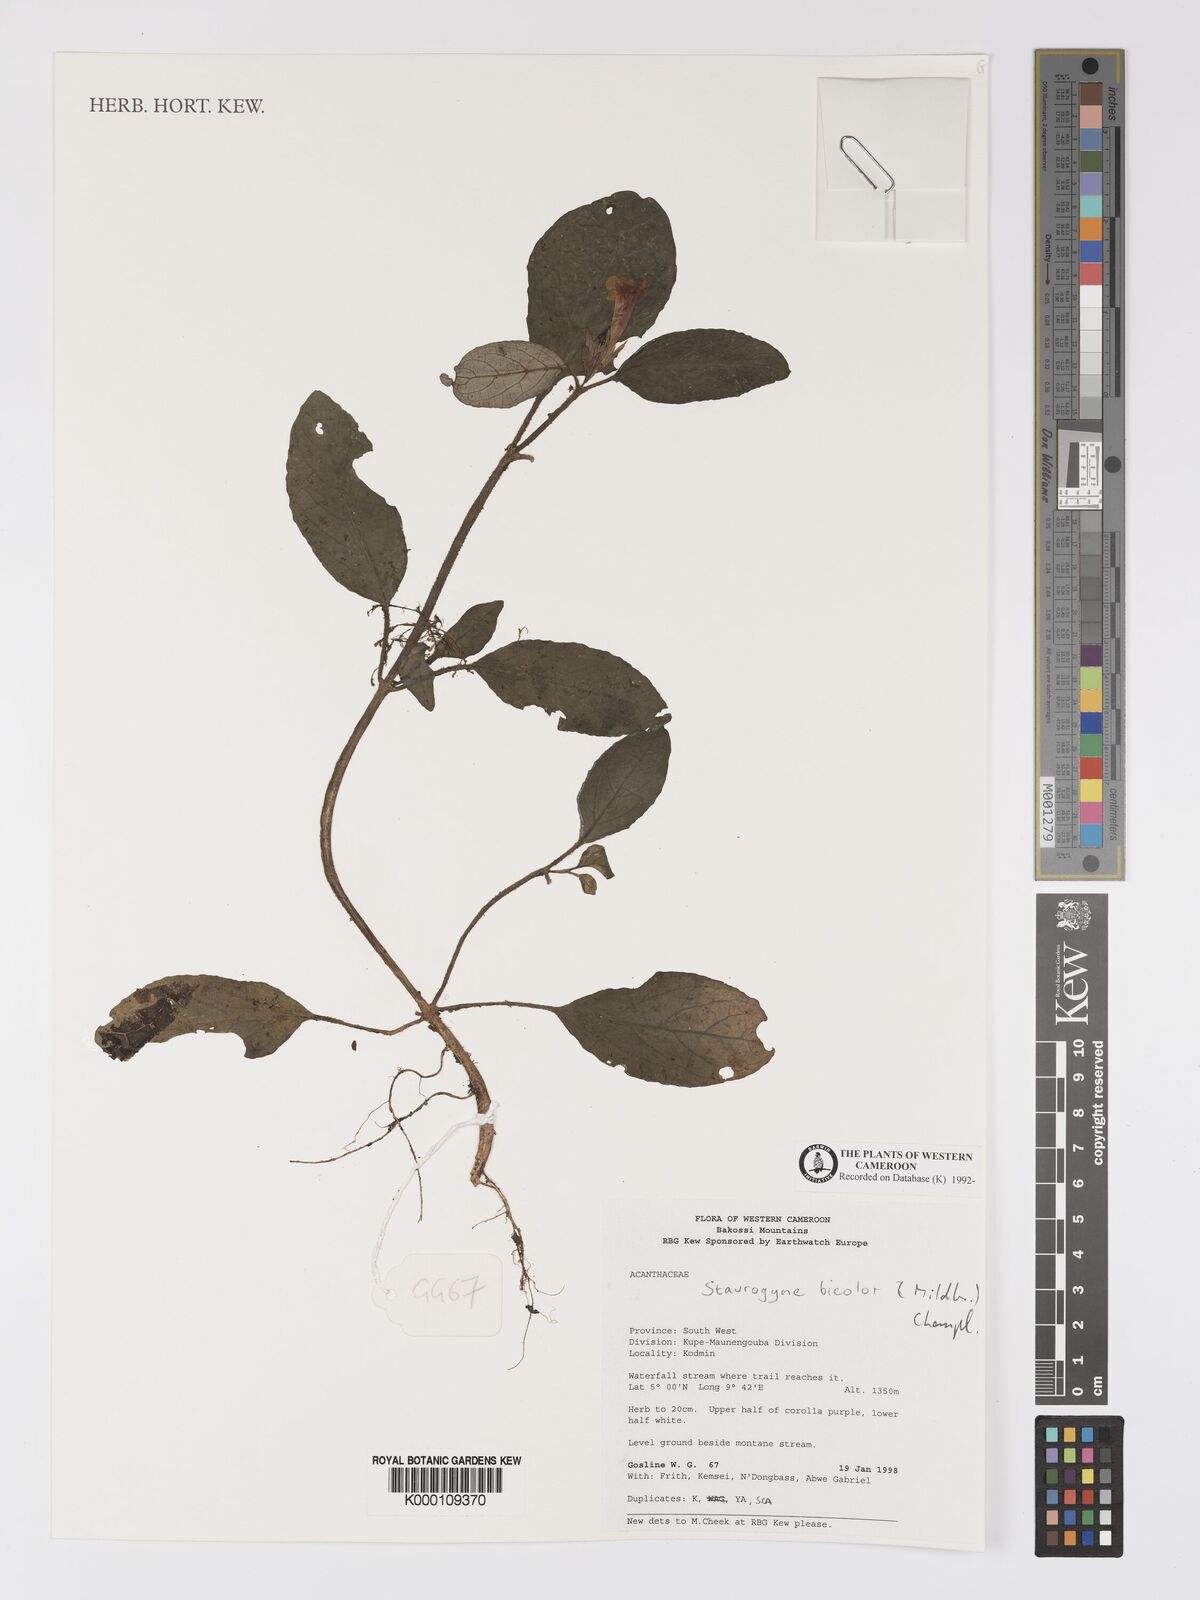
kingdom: Plantae
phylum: Tracheophyta
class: Magnoliopsida
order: Lamiales
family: Acanthaceae
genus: Staurogyne
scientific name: Staurogyne bicolor
